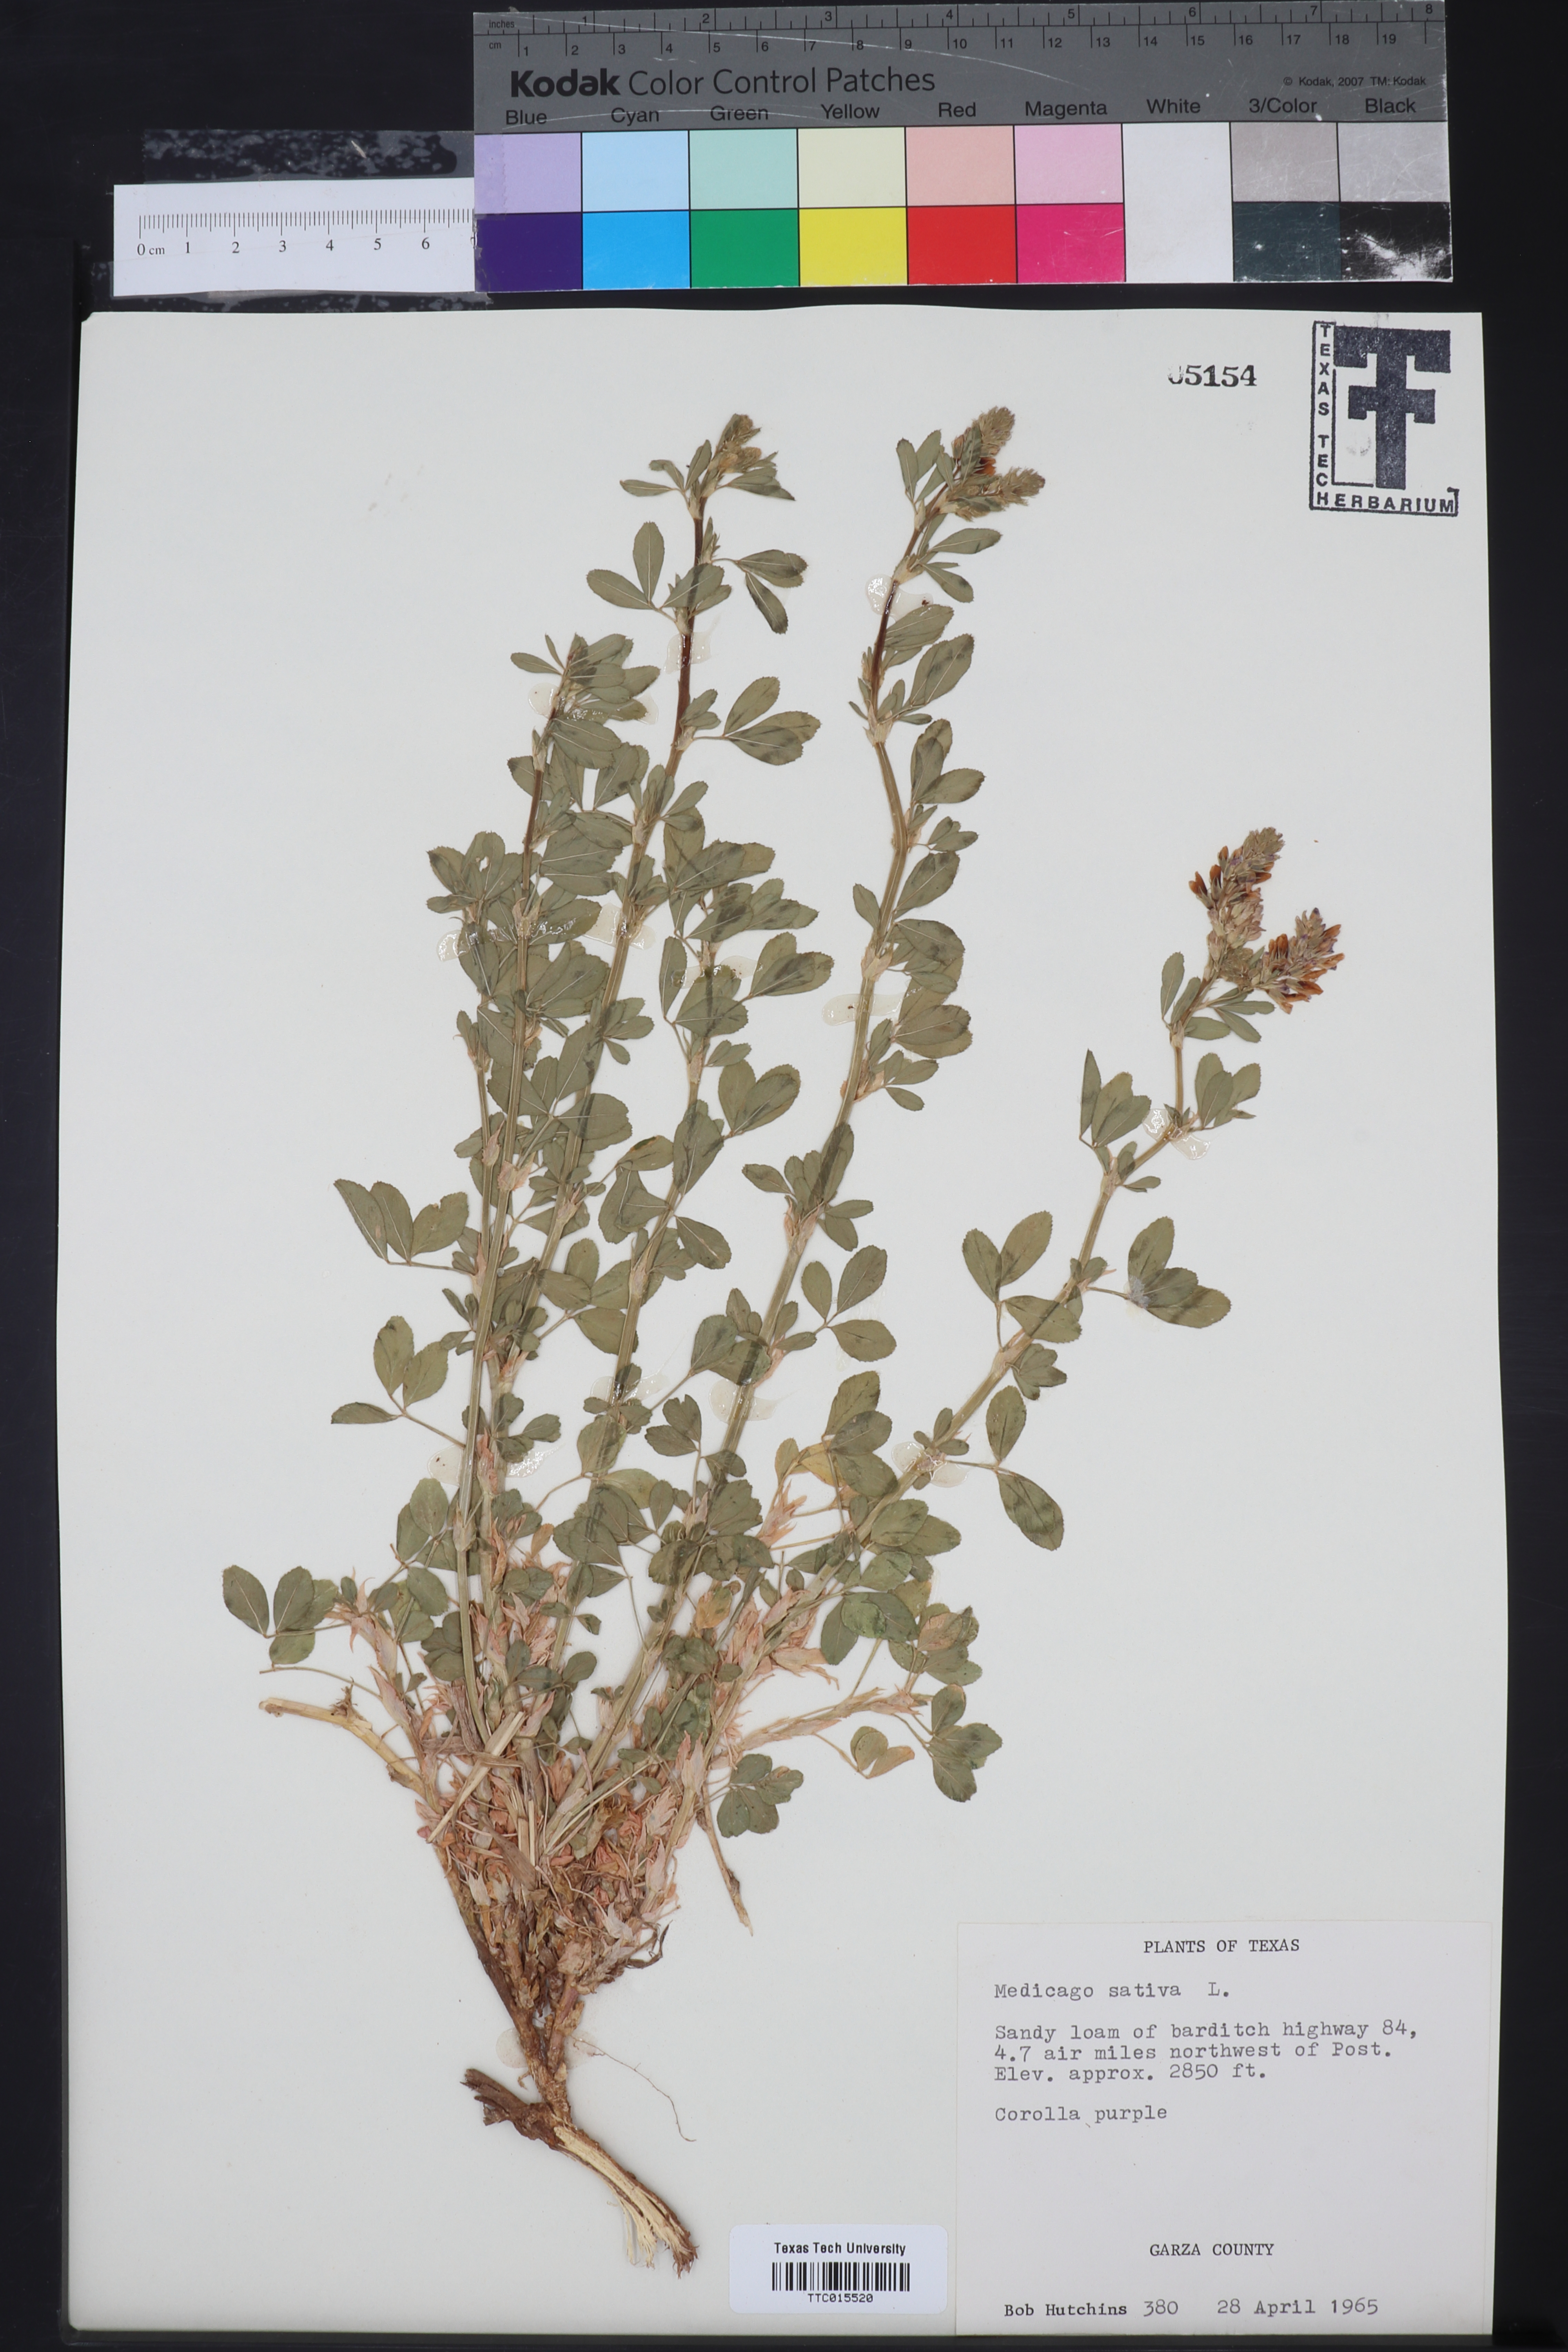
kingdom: Plantae
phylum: Tracheophyta
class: Magnoliopsida
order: Fabales
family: Fabaceae
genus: Medicago
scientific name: Medicago sativa
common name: Alfalfa
